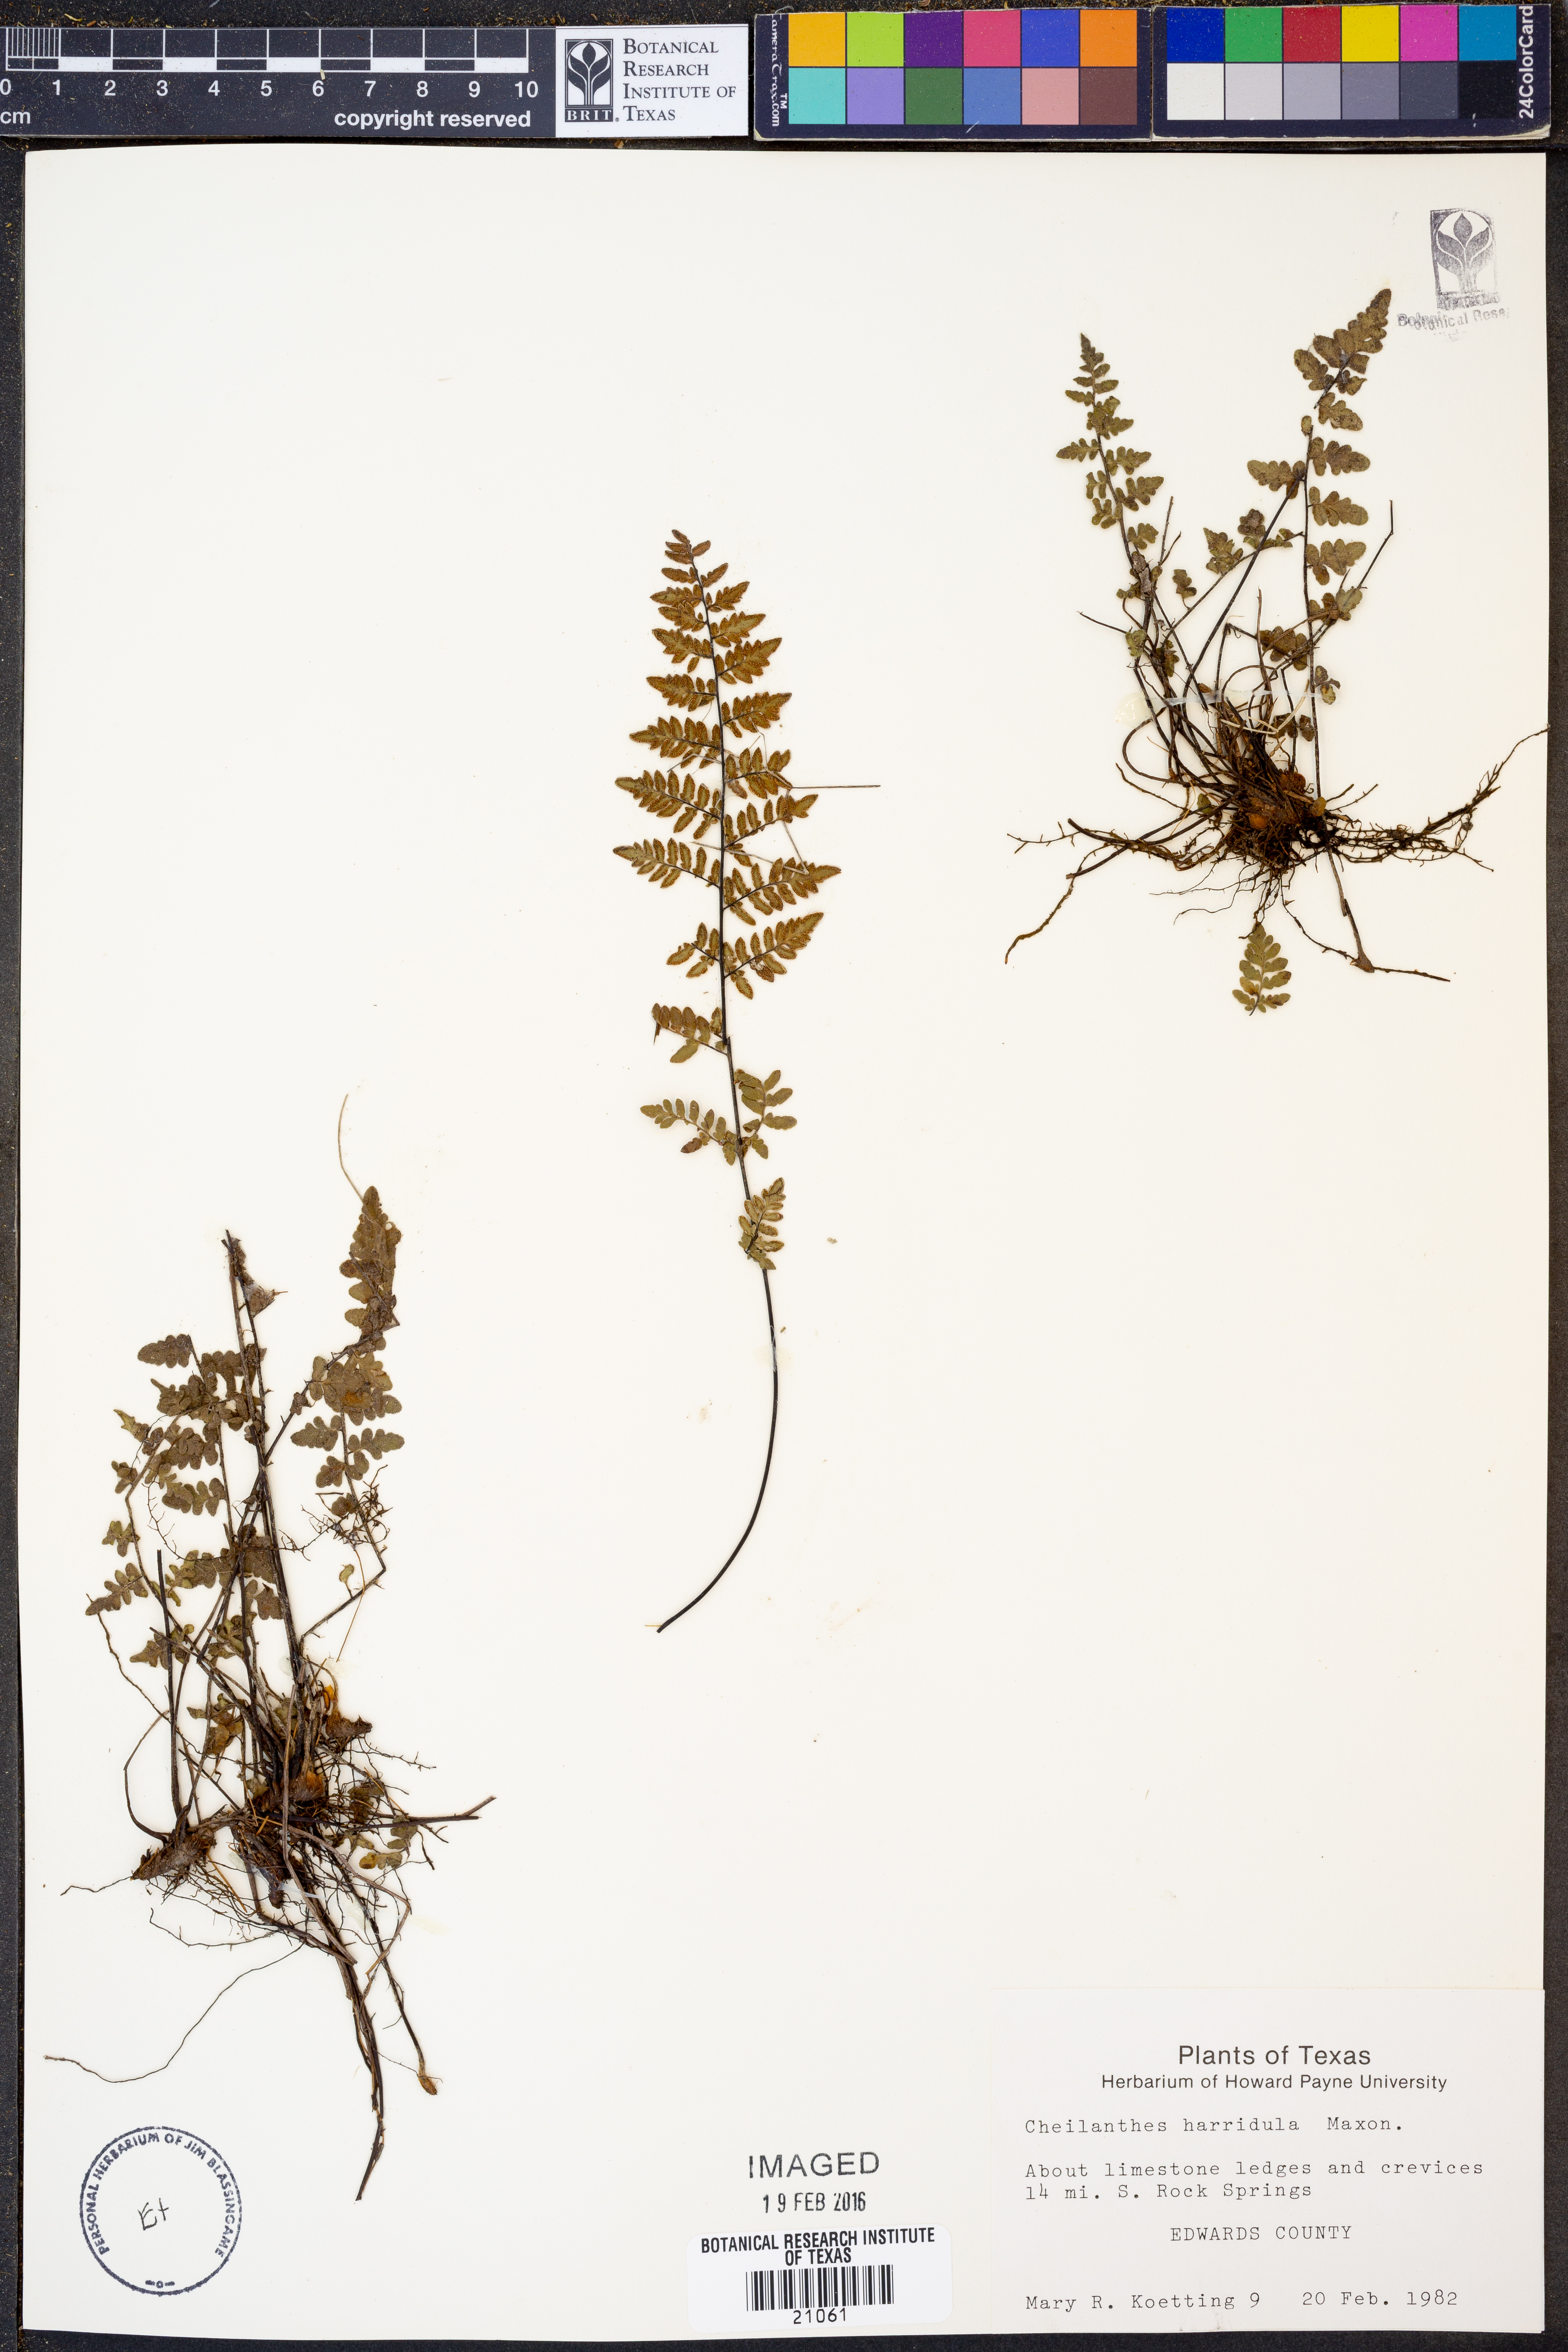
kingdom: Plantae
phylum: Tracheophyta
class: Polypodiopsida
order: Polypodiales
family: Pteridaceae
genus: Myriopteris
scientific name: Myriopteris scabra
